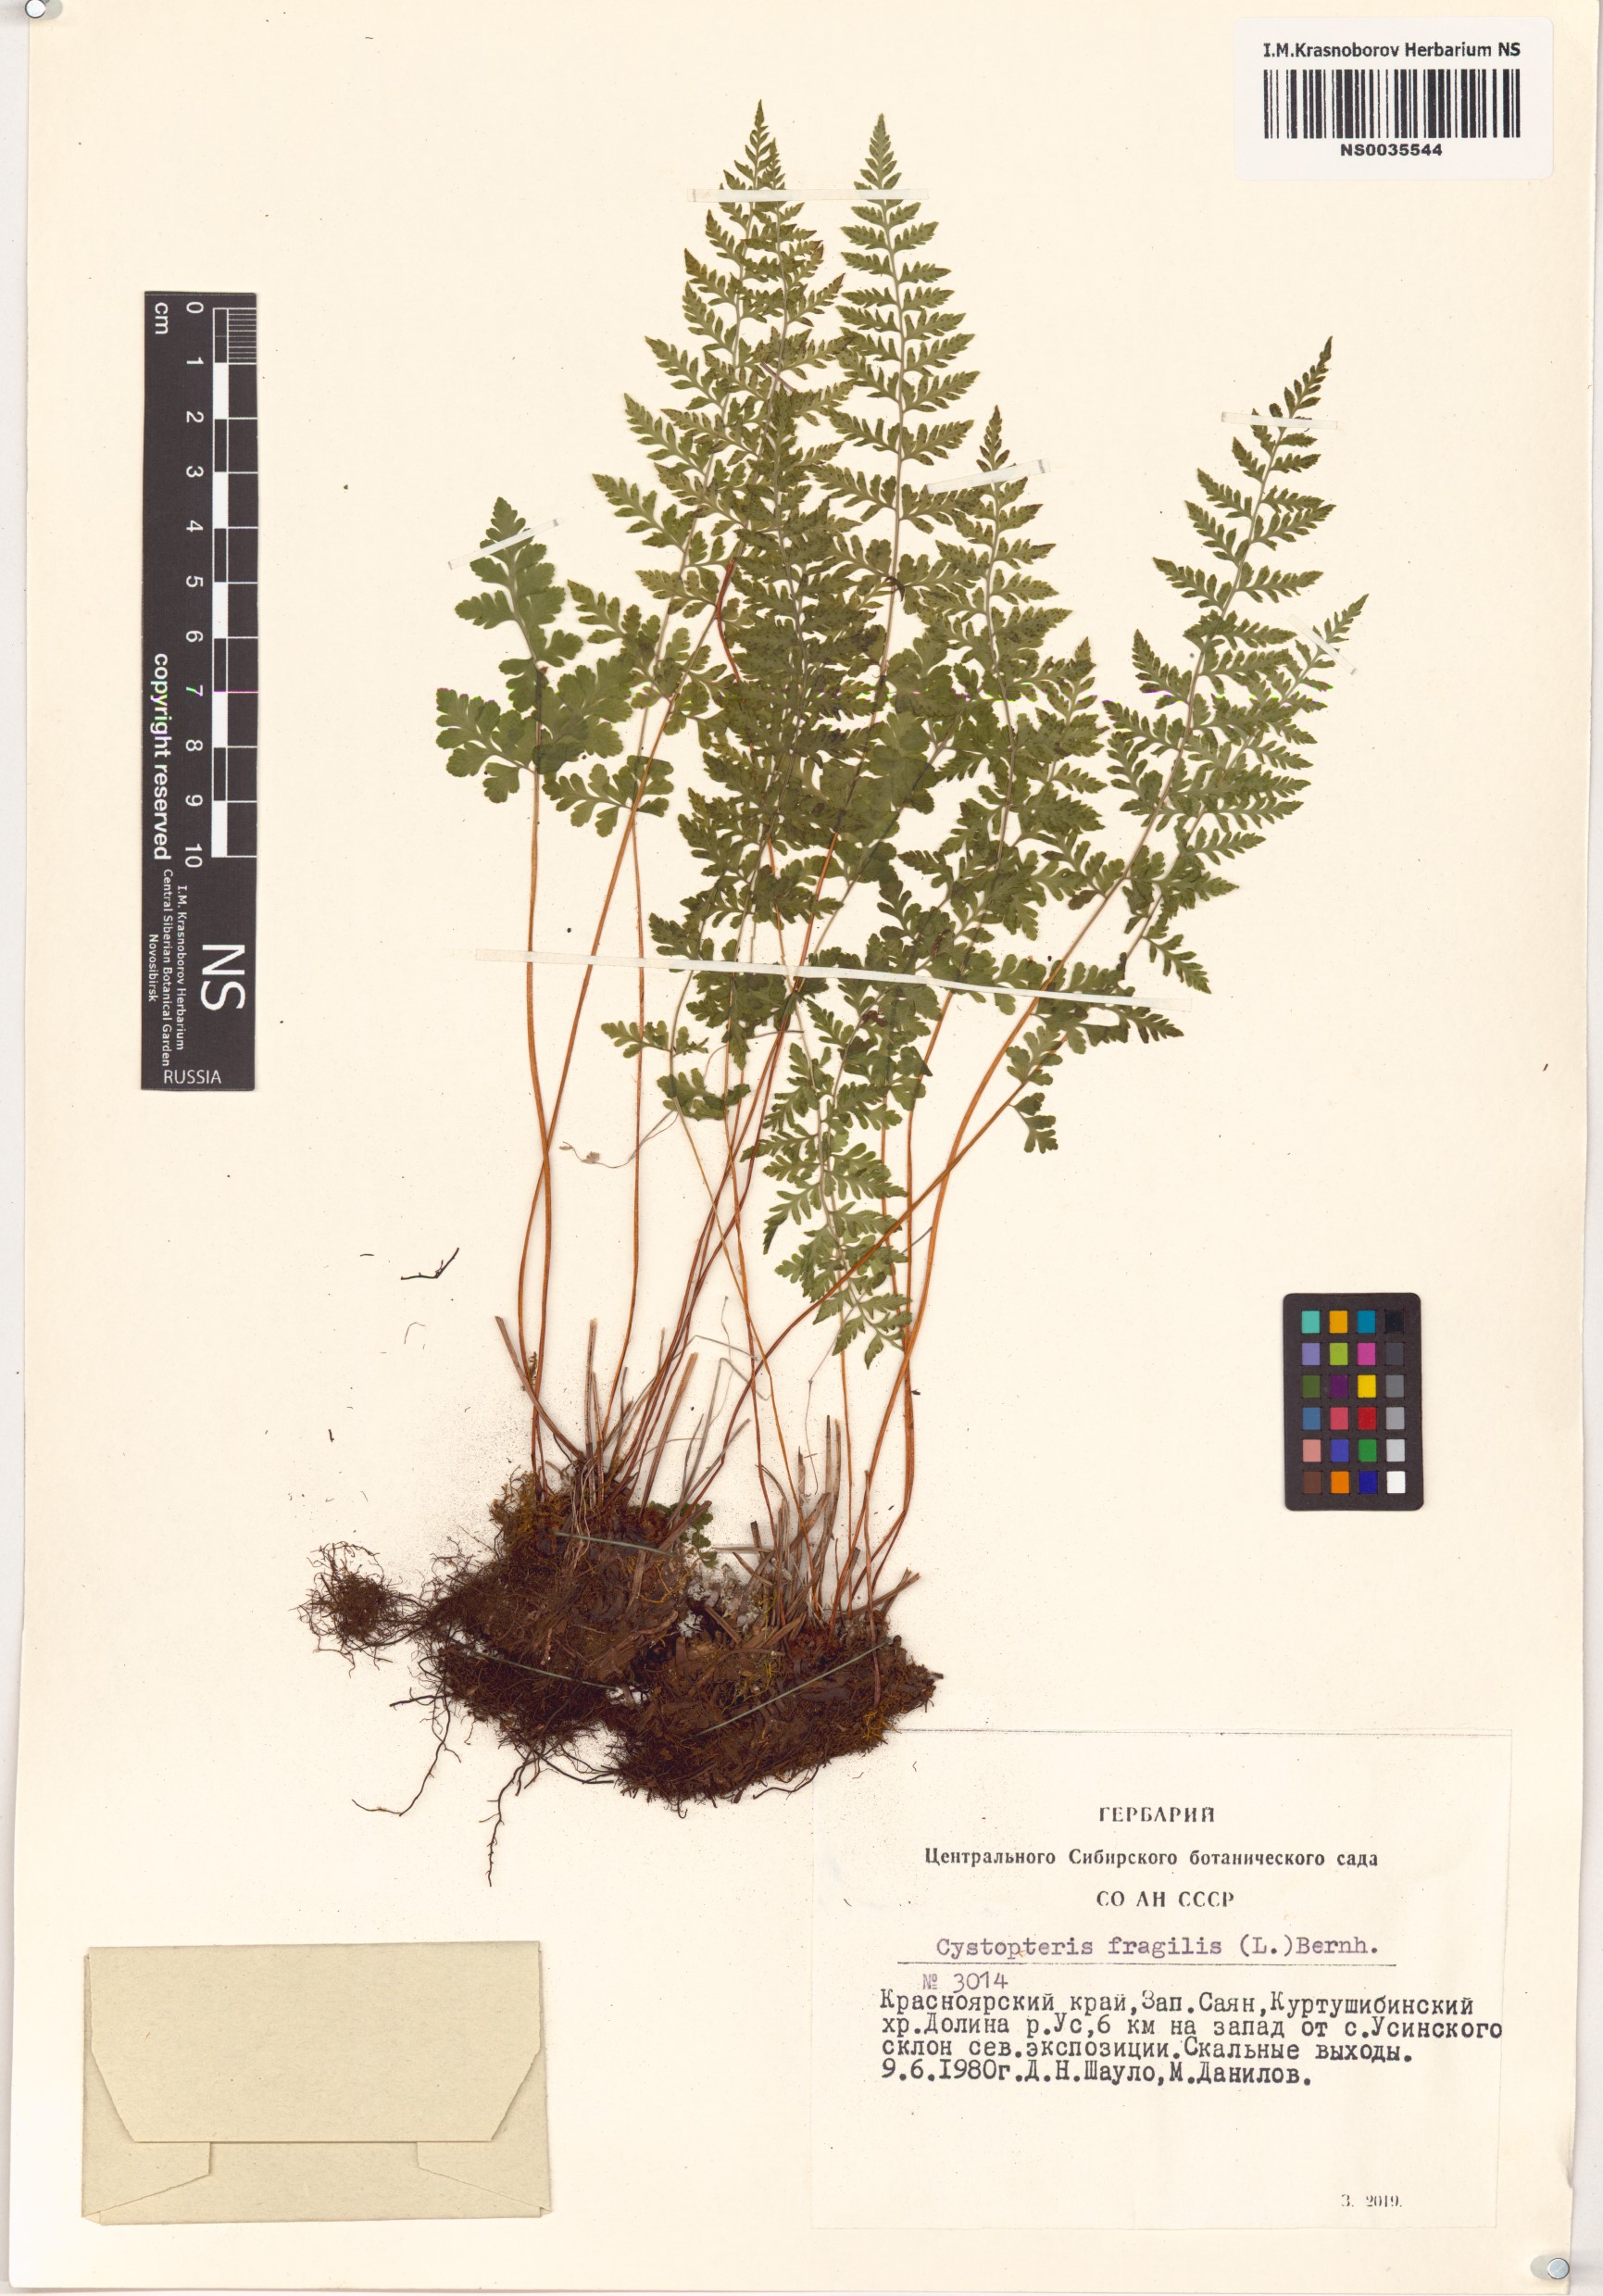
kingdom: Plantae
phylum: Tracheophyta
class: Polypodiopsida
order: Polypodiales
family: Cystopteridaceae
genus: Cystopteris
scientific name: Cystopteris fragilis
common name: Brittle bladder fern
